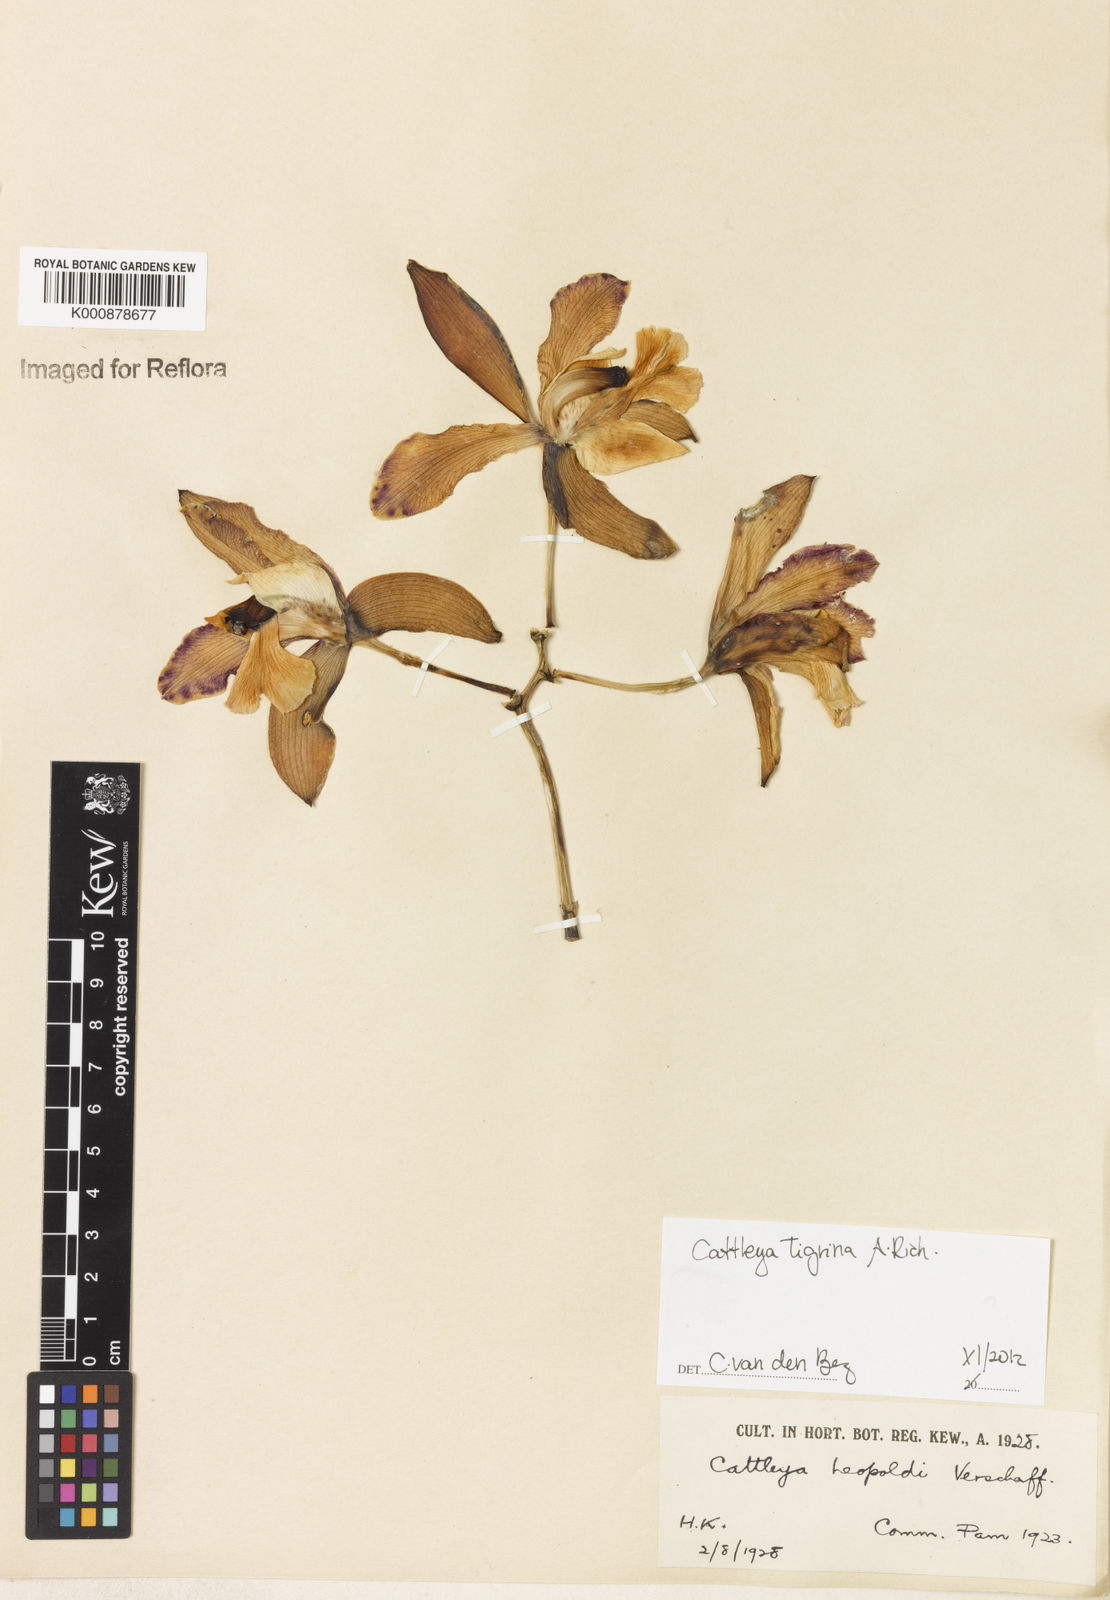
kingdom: Plantae
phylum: Tracheophyta
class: Liliopsida
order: Asparagales
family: Orchidaceae
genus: Cattleya
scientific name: Cattleya tigrina
